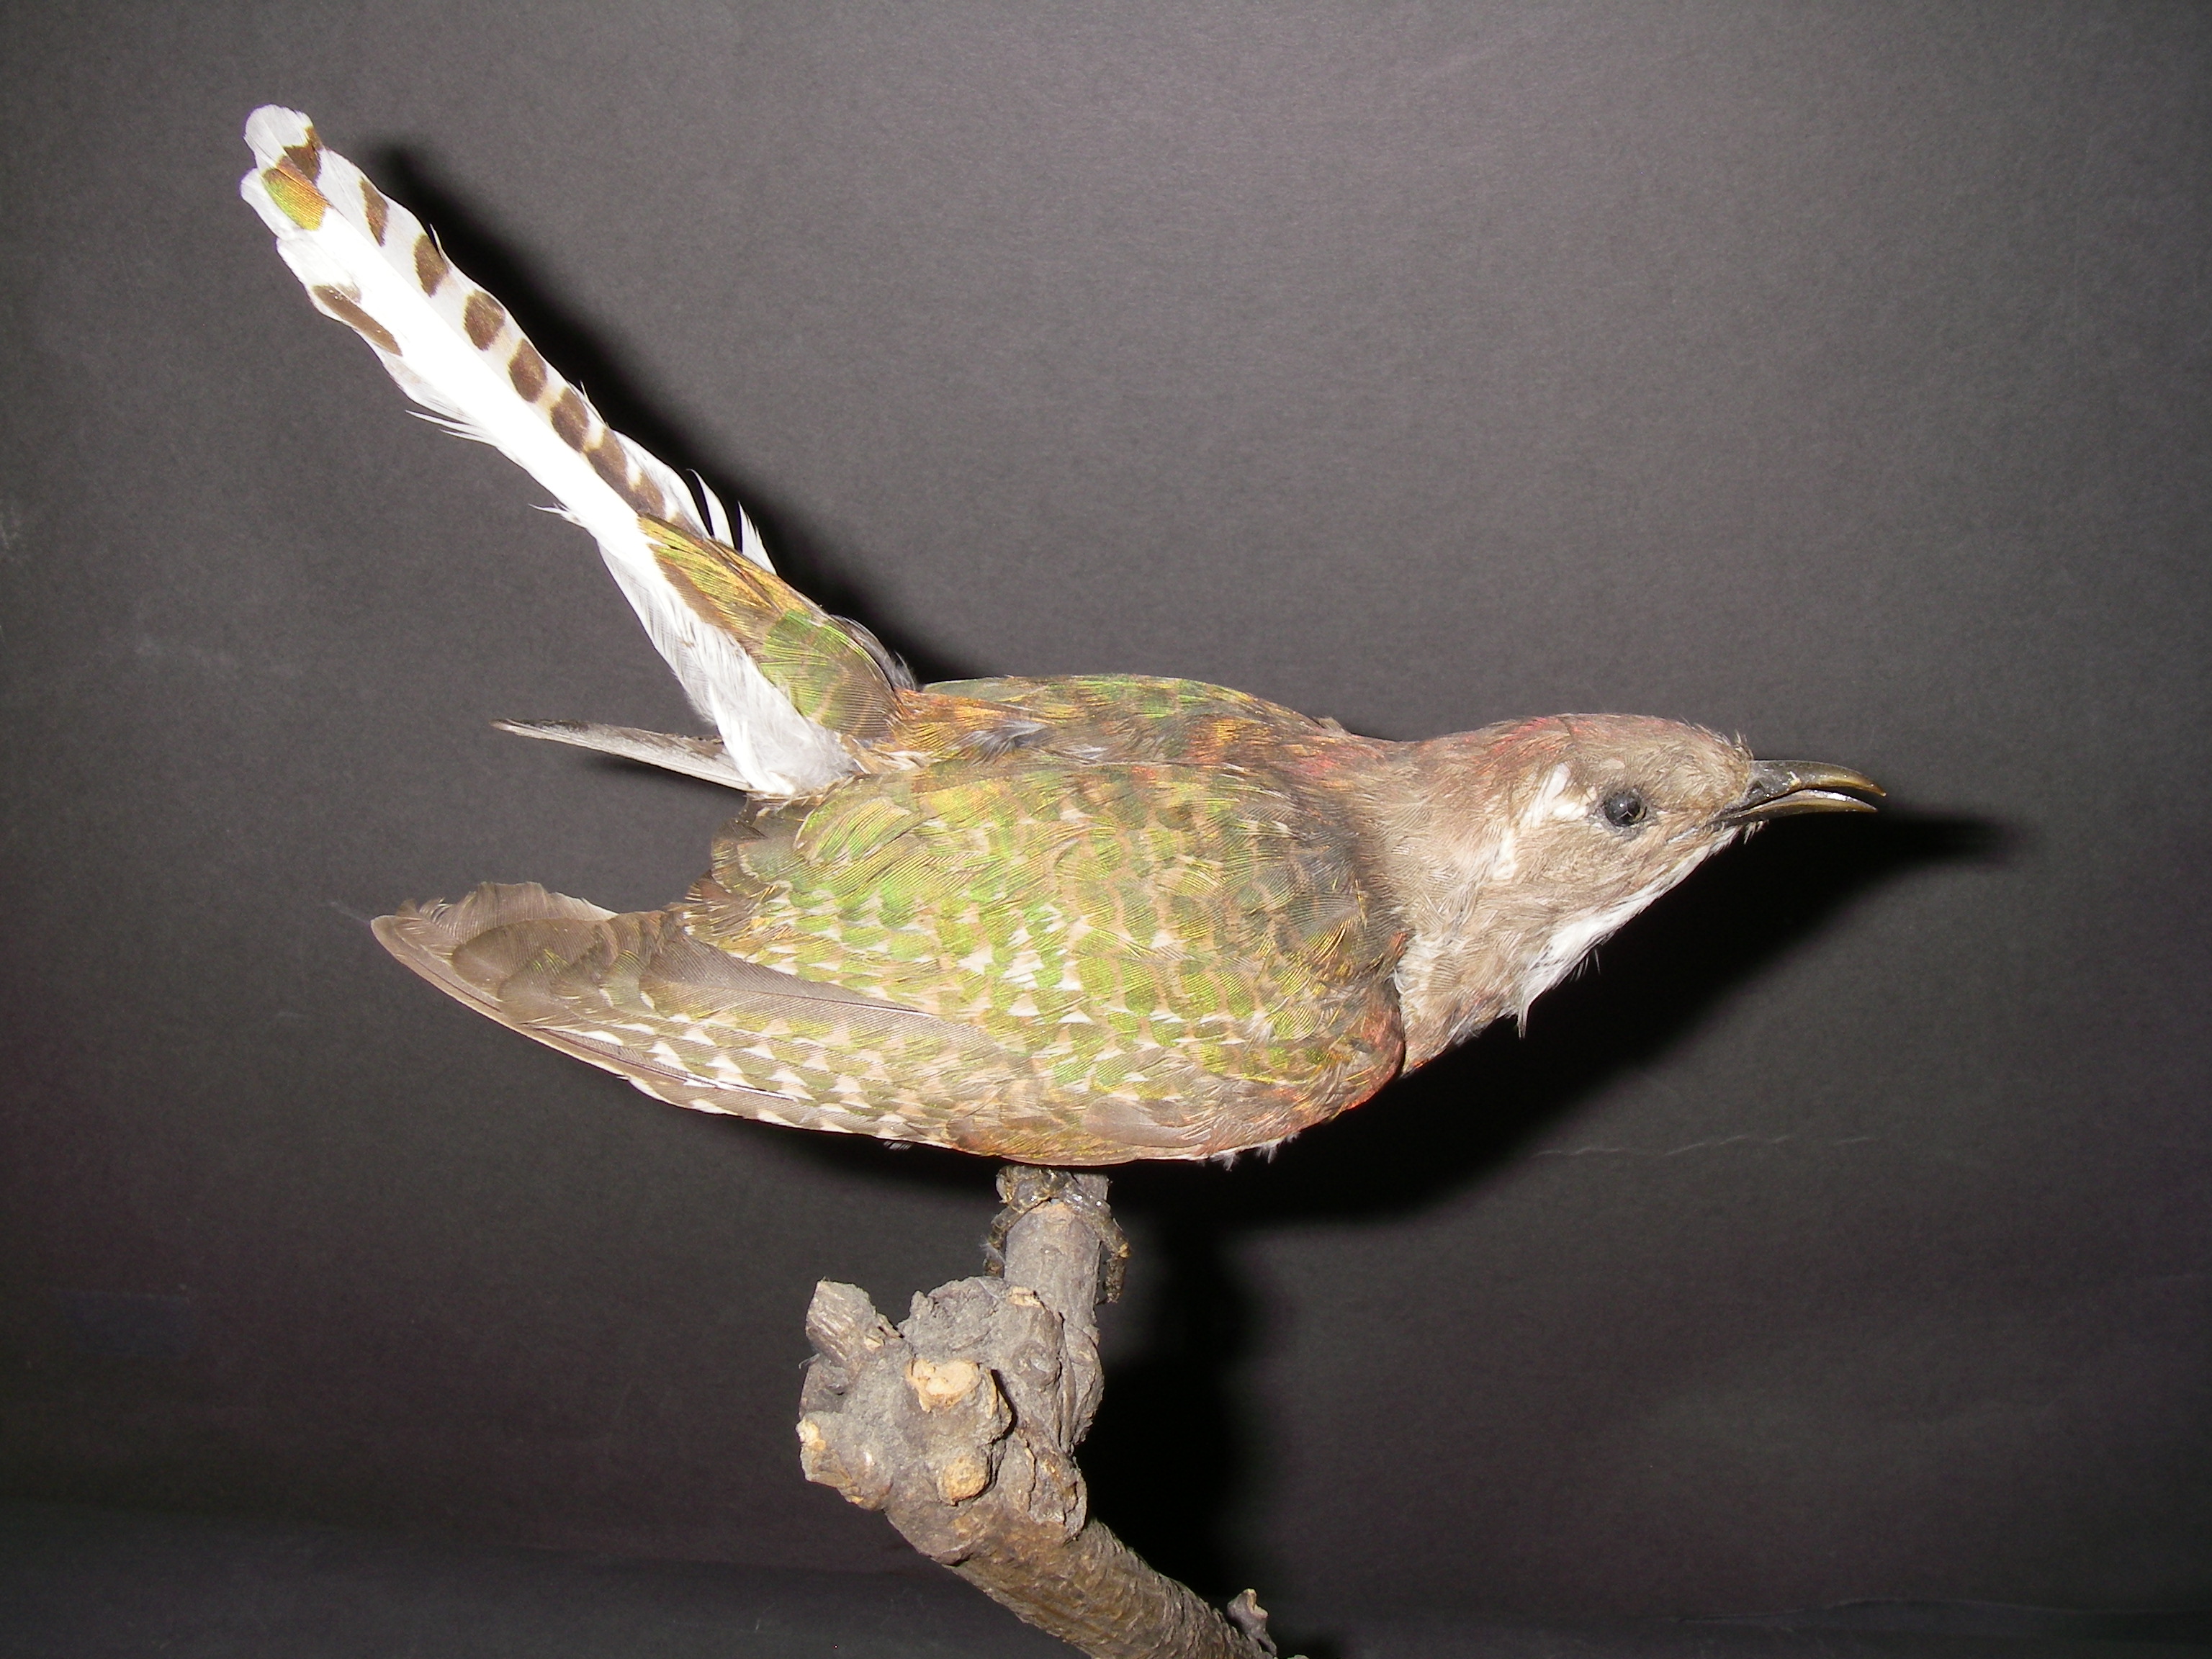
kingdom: Animalia
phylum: Chordata
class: Aves
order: Cuculiformes
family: Cuculidae
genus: Chrysococcyx
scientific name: Chrysococcyx klaas
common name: Klaas's cuckoo
